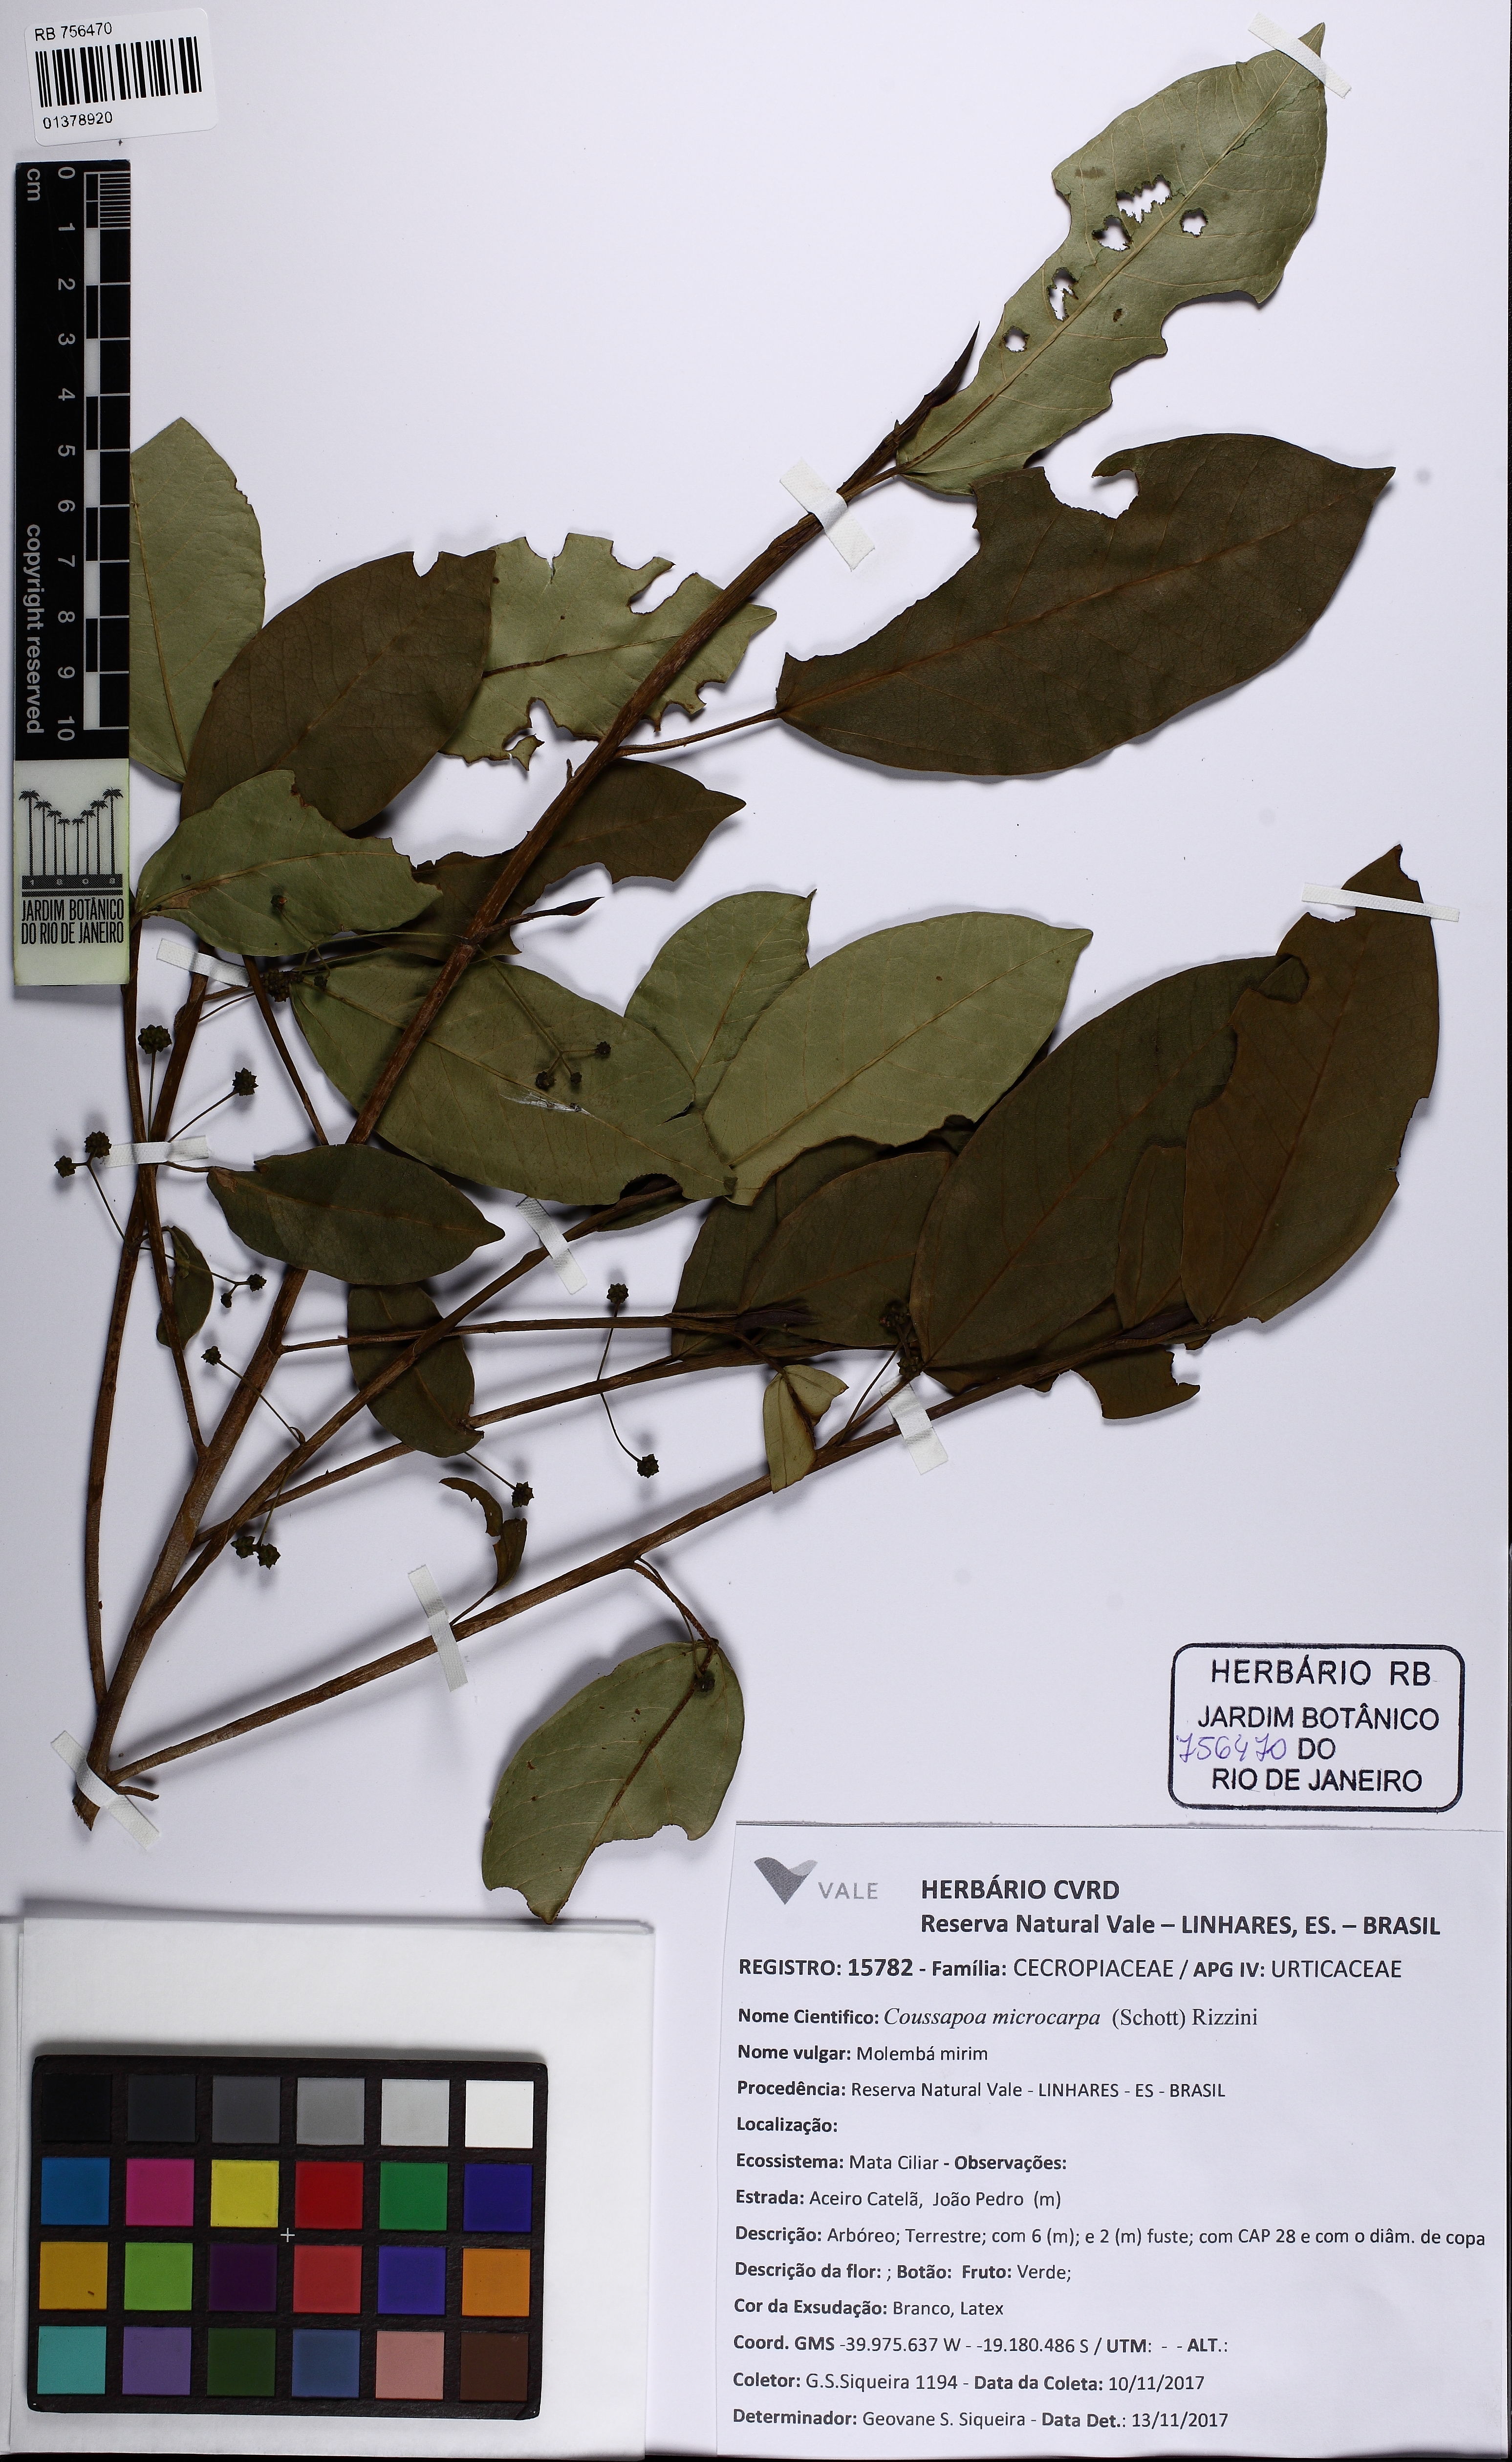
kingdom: Plantae
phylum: Tracheophyta
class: Magnoliopsida
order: Rosales
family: Urticaceae
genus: Coussapoa
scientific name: Coussapoa microcarpa
